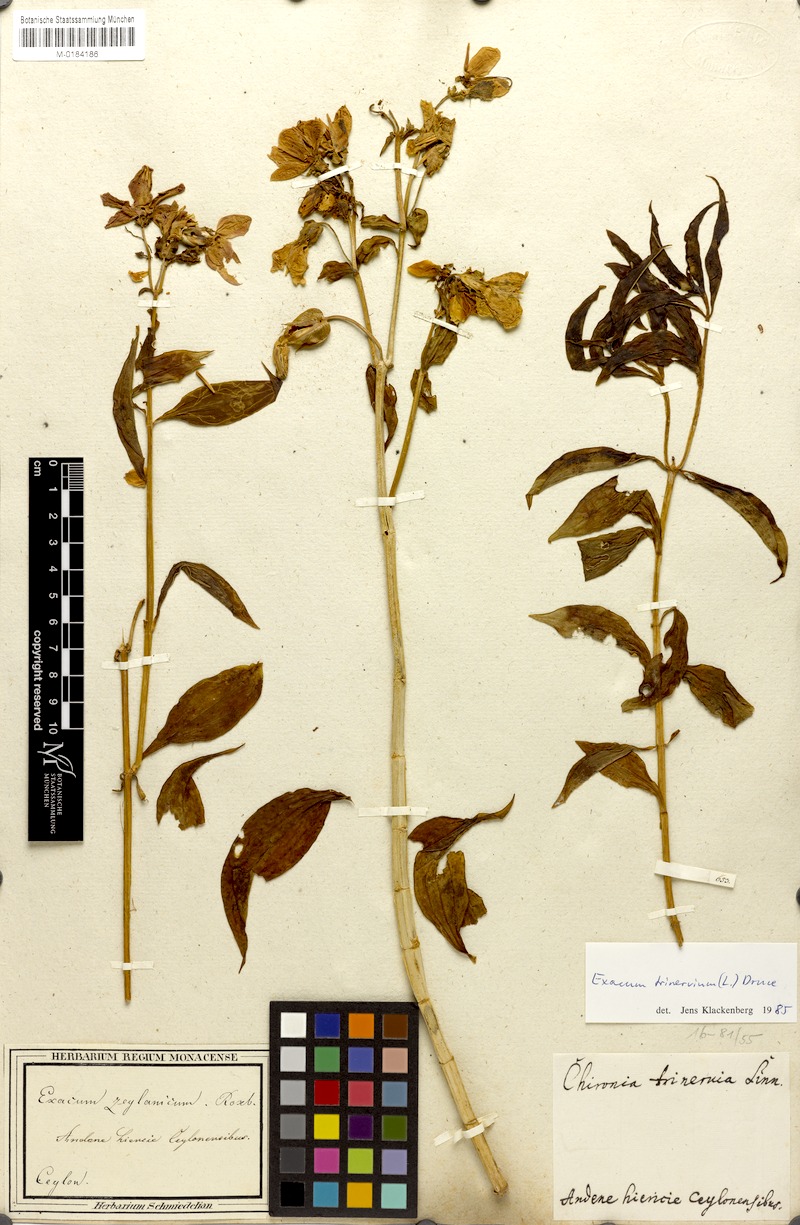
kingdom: Plantae
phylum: Tracheophyta
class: Magnoliopsida
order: Gentianales
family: Gentianaceae
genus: Exacum
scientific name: Exacum trinervium
